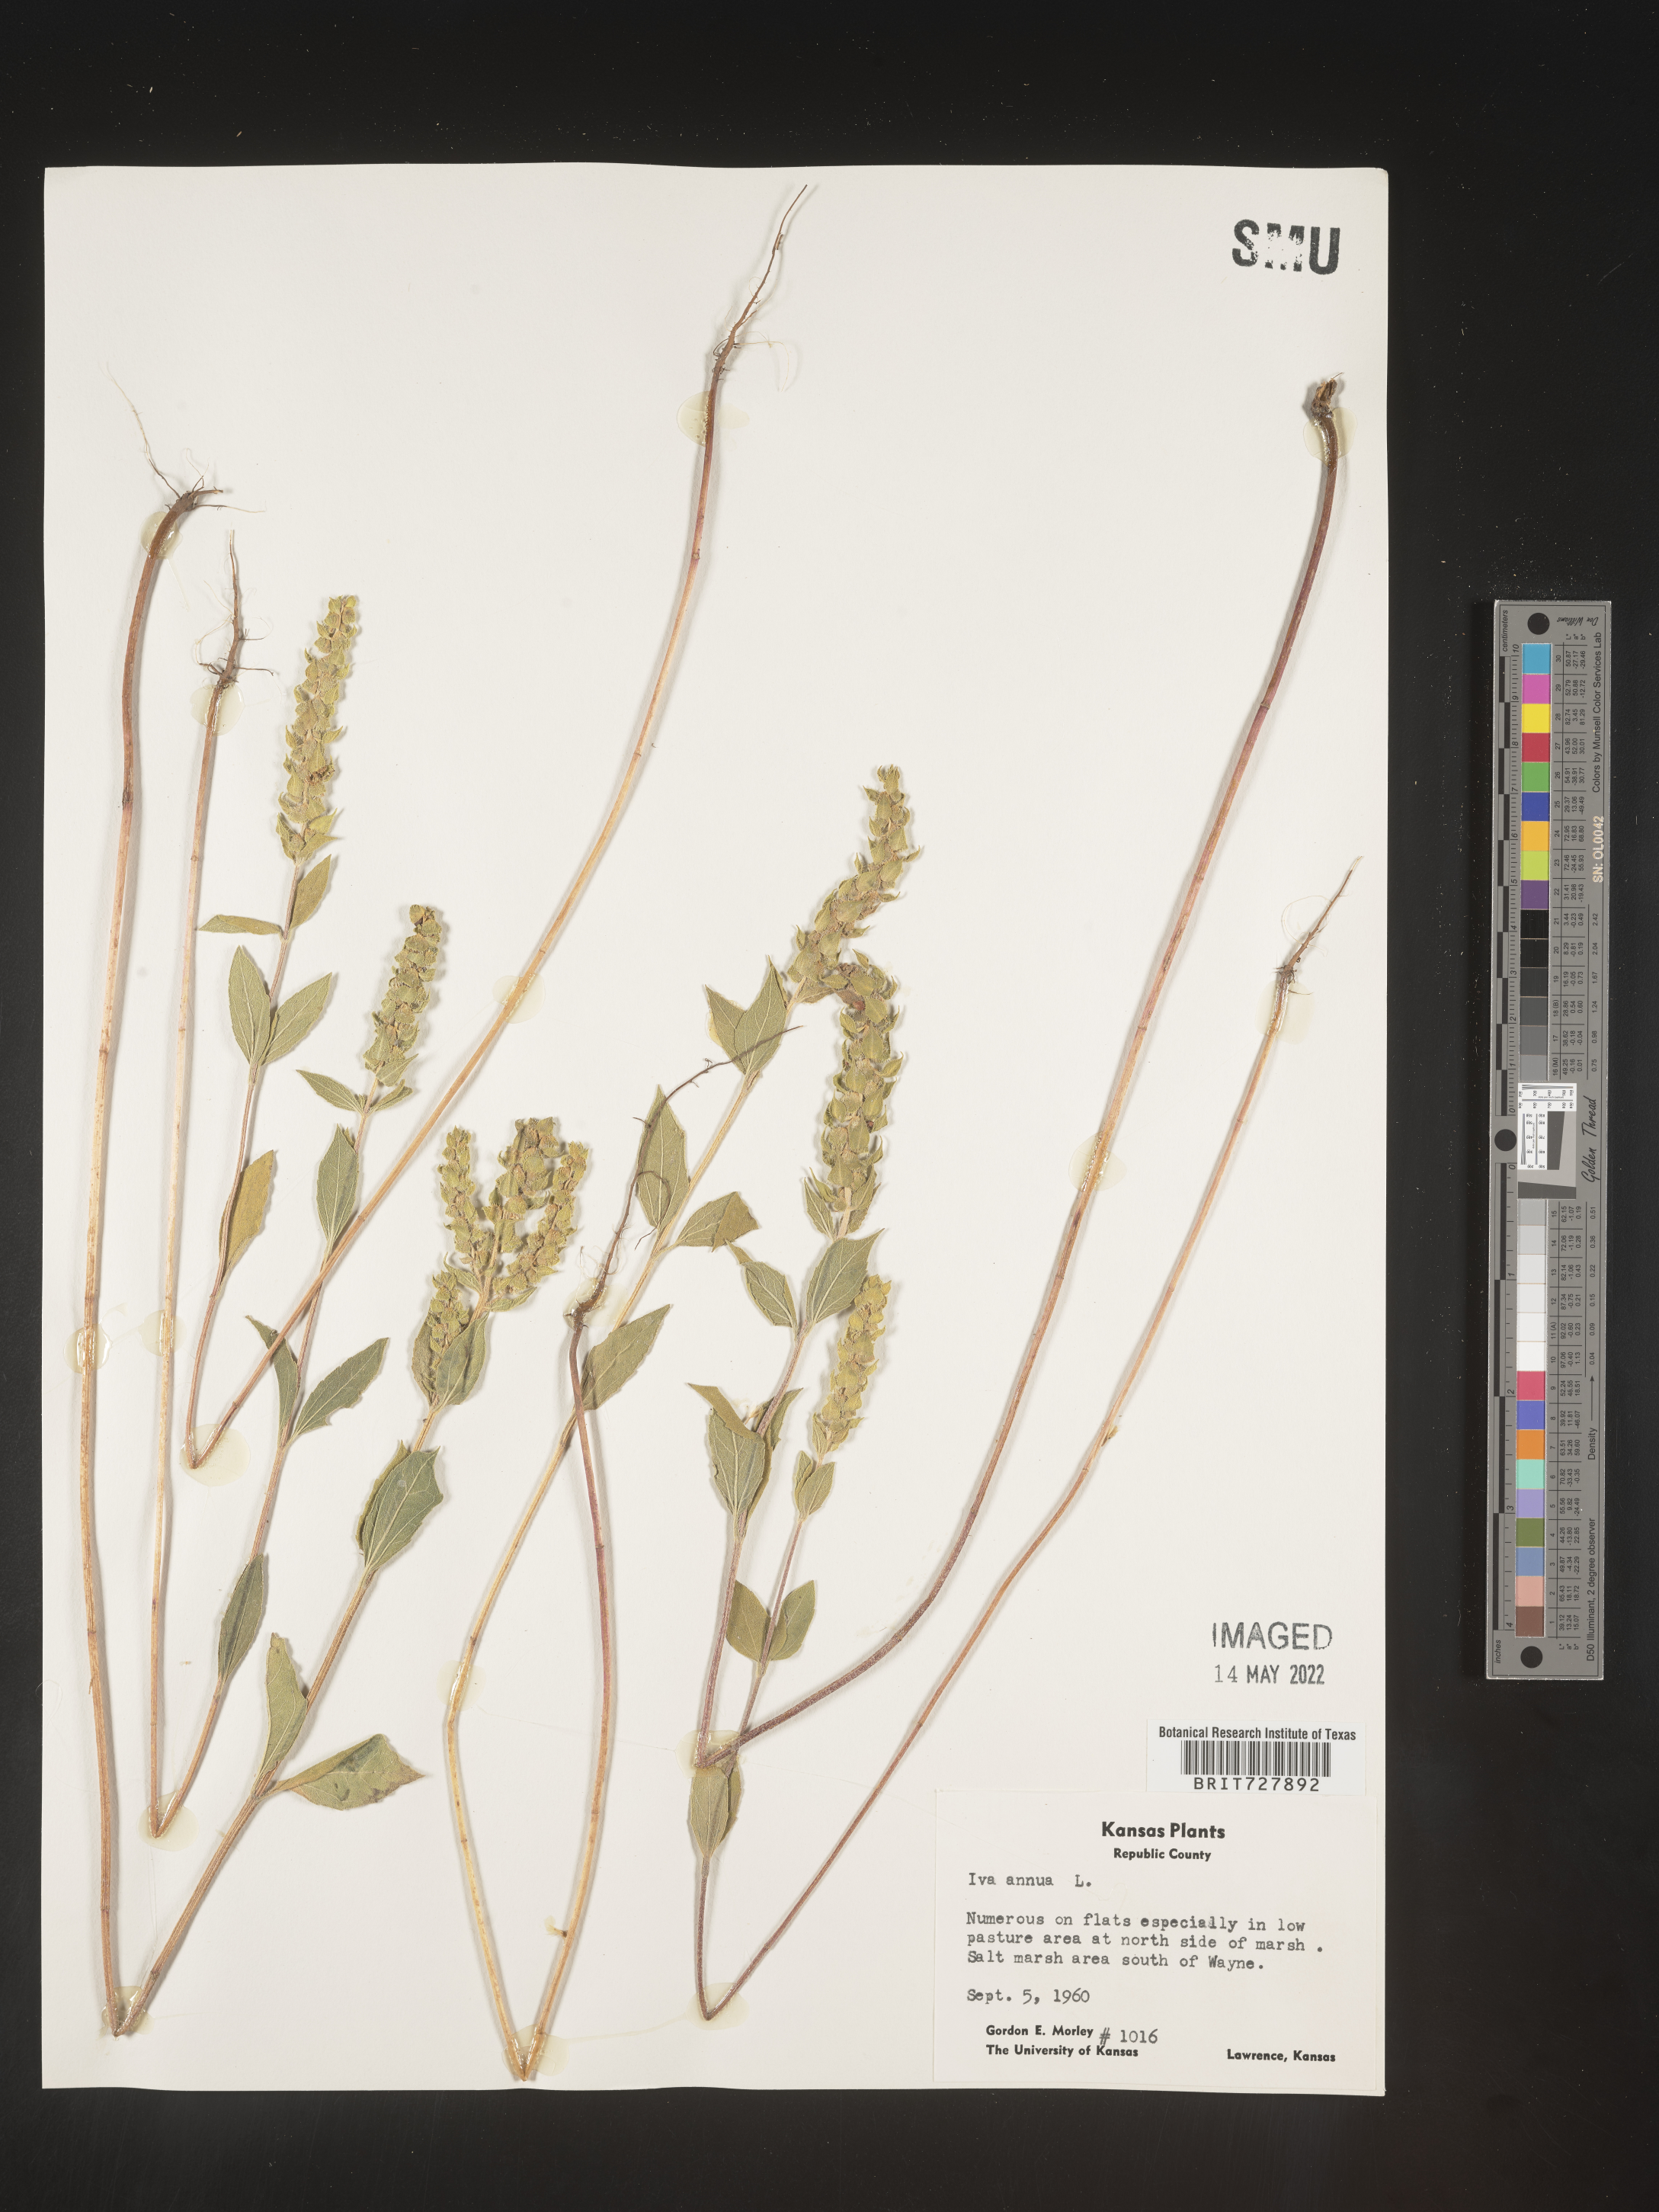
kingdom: Plantae
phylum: Tracheophyta
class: Magnoliopsida
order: Asterales
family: Asteraceae
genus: Iva
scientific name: Iva annua
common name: Marsh-elder
